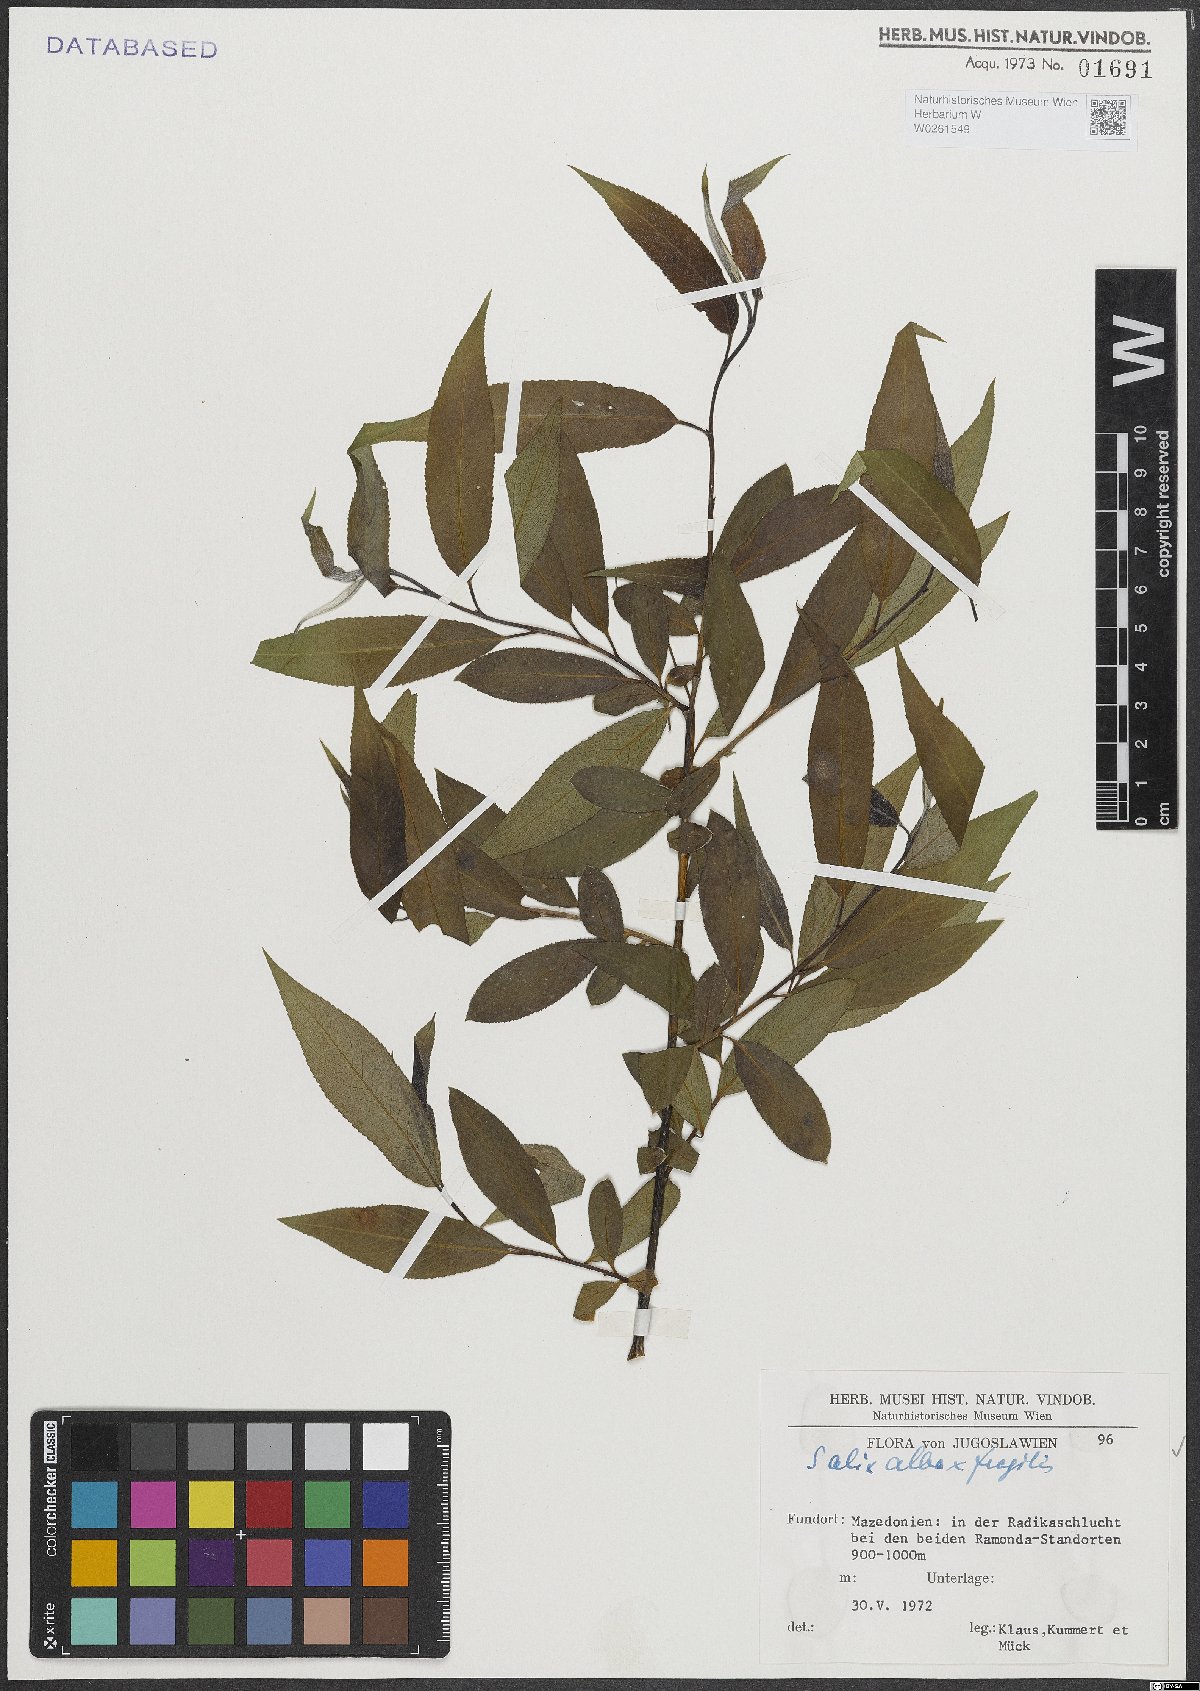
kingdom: Plantae
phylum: Tracheophyta
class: Magnoliopsida
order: Malpighiales
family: Salicaceae
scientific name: Salicaceae
